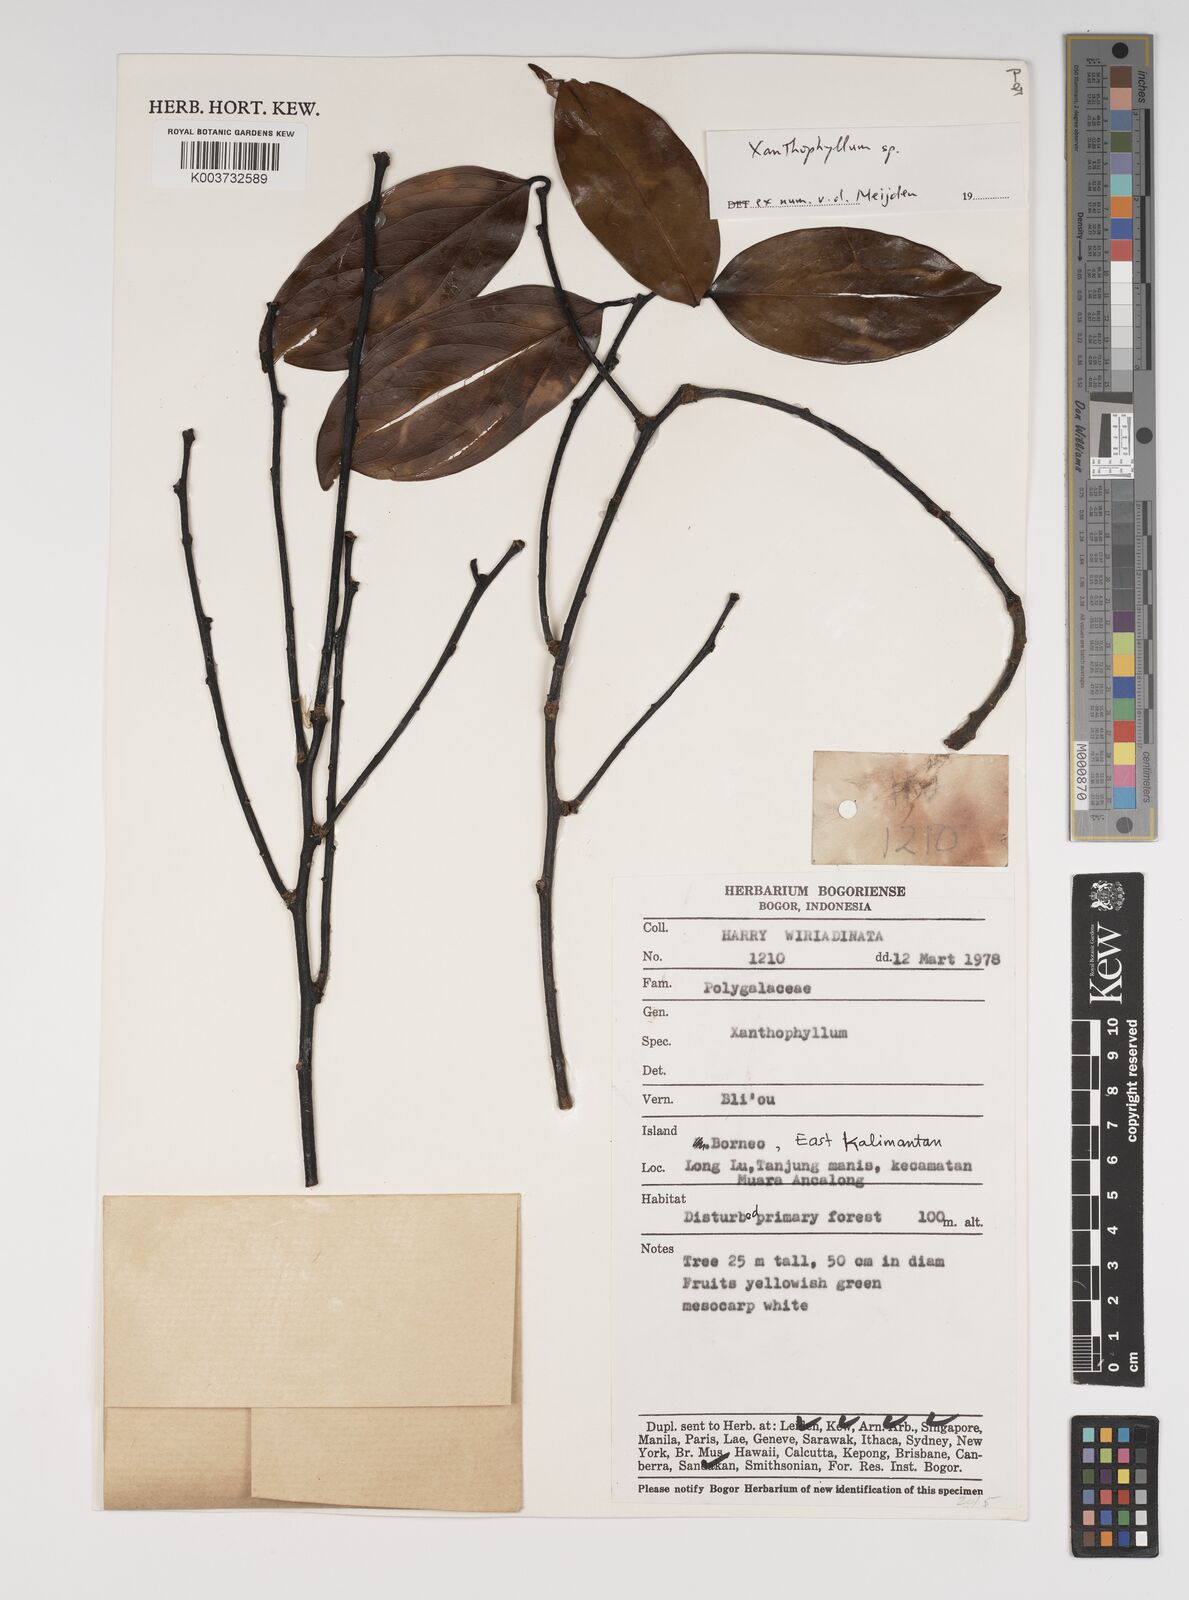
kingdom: Plantae
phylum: Tracheophyta
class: Magnoliopsida
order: Fabales
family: Polygalaceae
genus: Xanthophyllum
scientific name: Xanthophyllum
